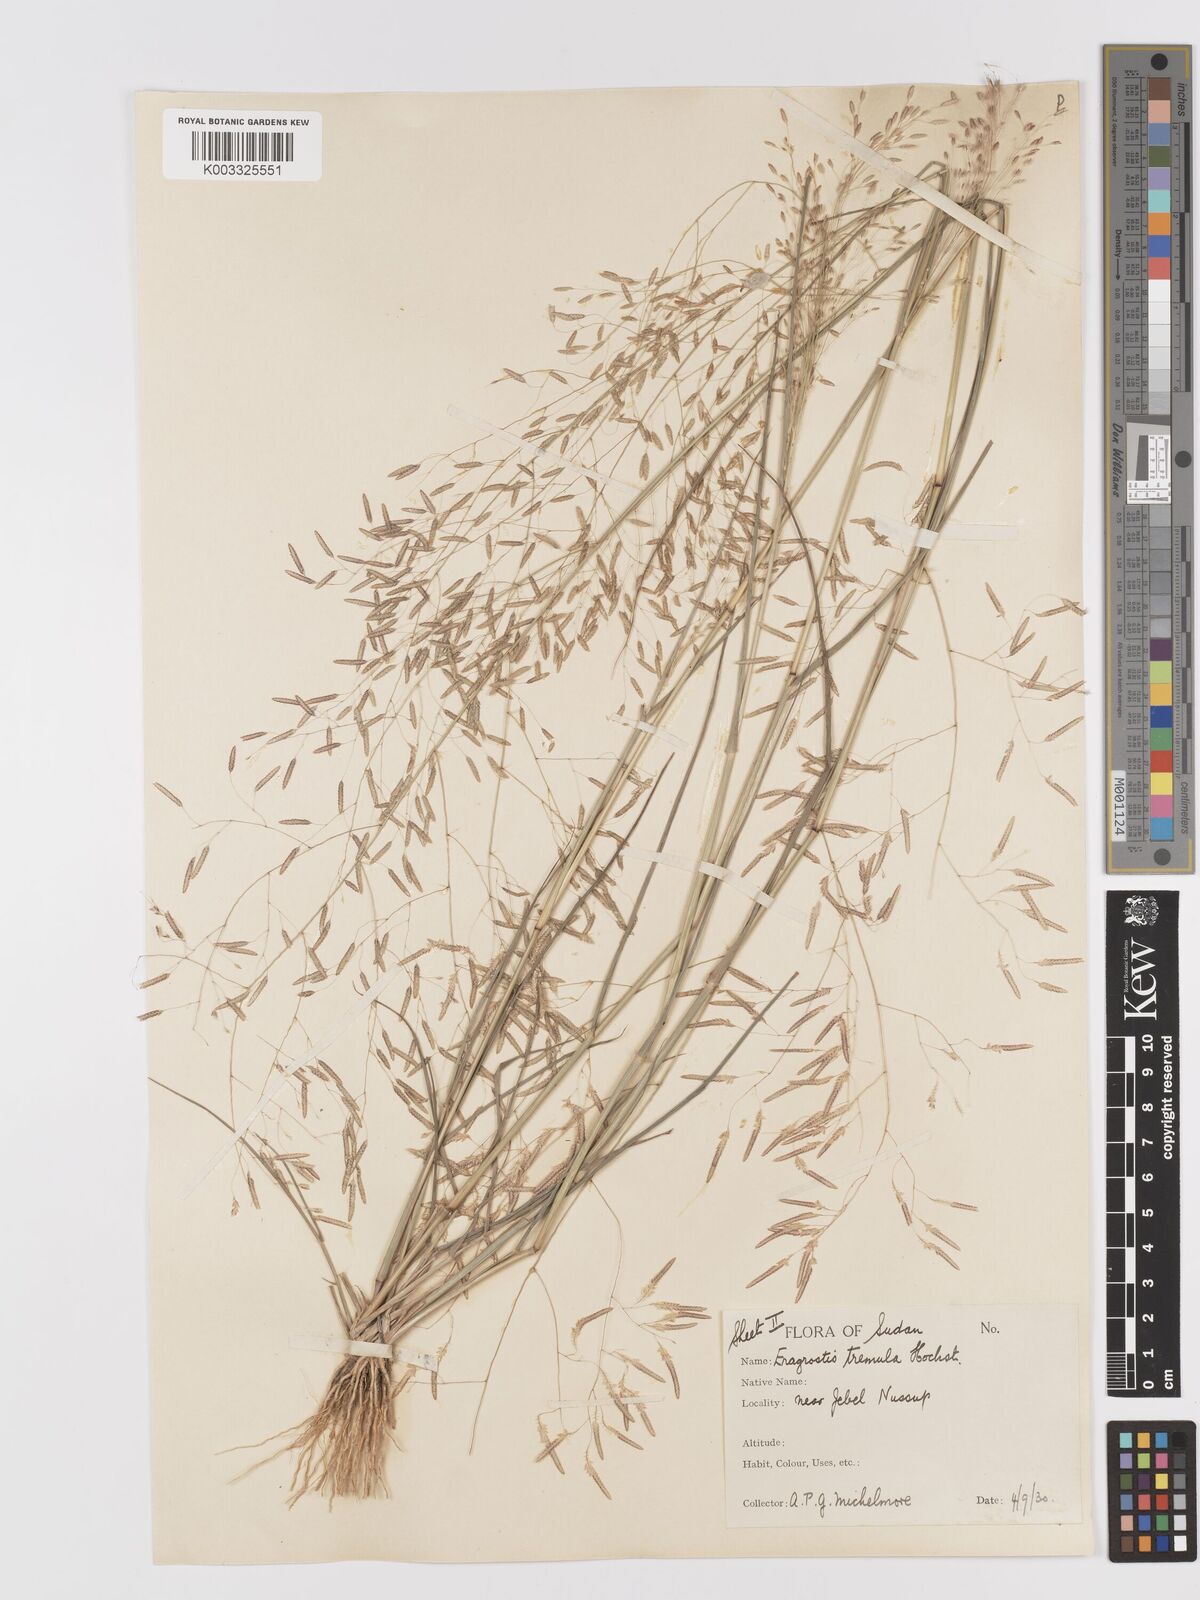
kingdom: Plantae
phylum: Tracheophyta
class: Liliopsida
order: Poales
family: Poaceae
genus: Eragrostis
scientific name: Eragrostis tremula
